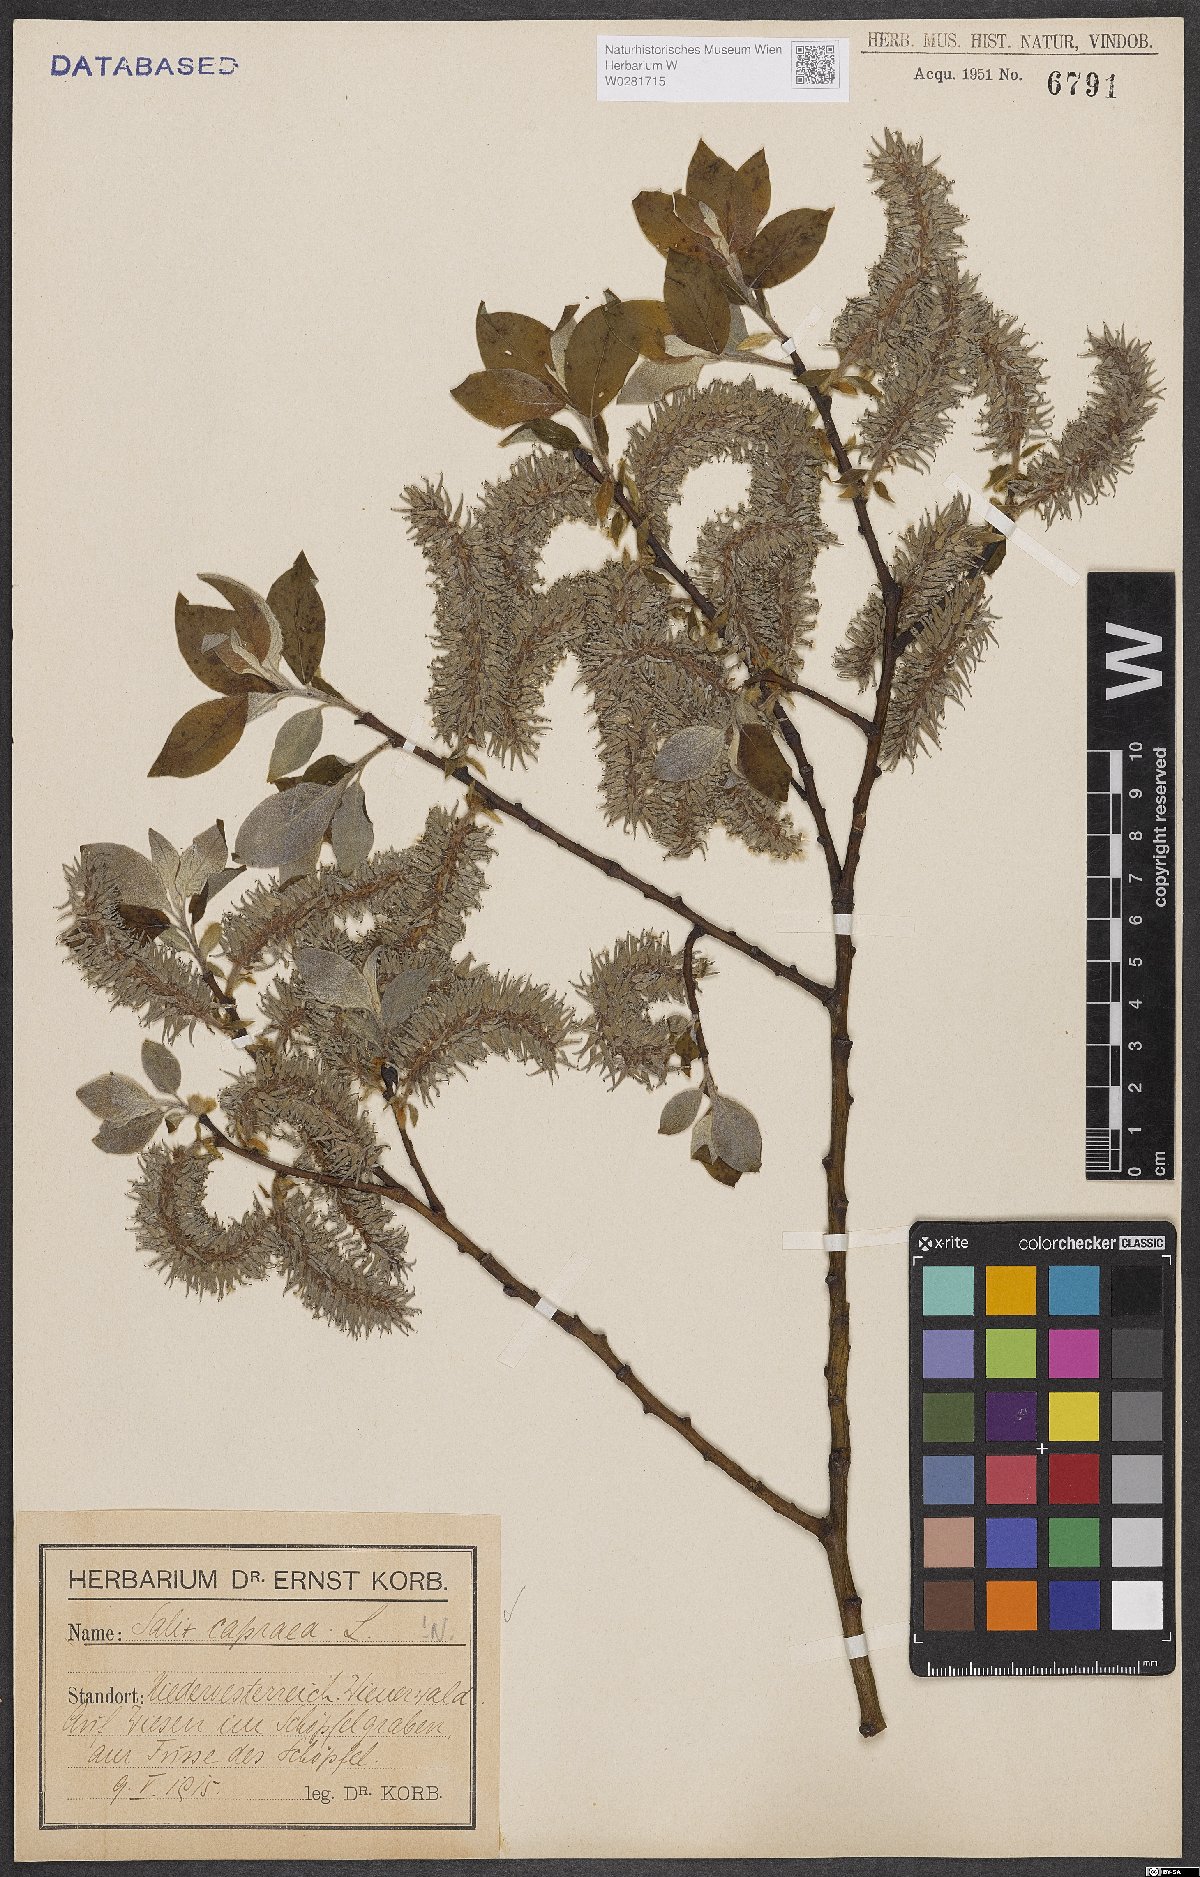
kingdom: Plantae
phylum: Tracheophyta
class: Magnoliopsida
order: Malpighiales
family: Salicaceae
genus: Salix
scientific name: Salix caprea
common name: Goat willow
